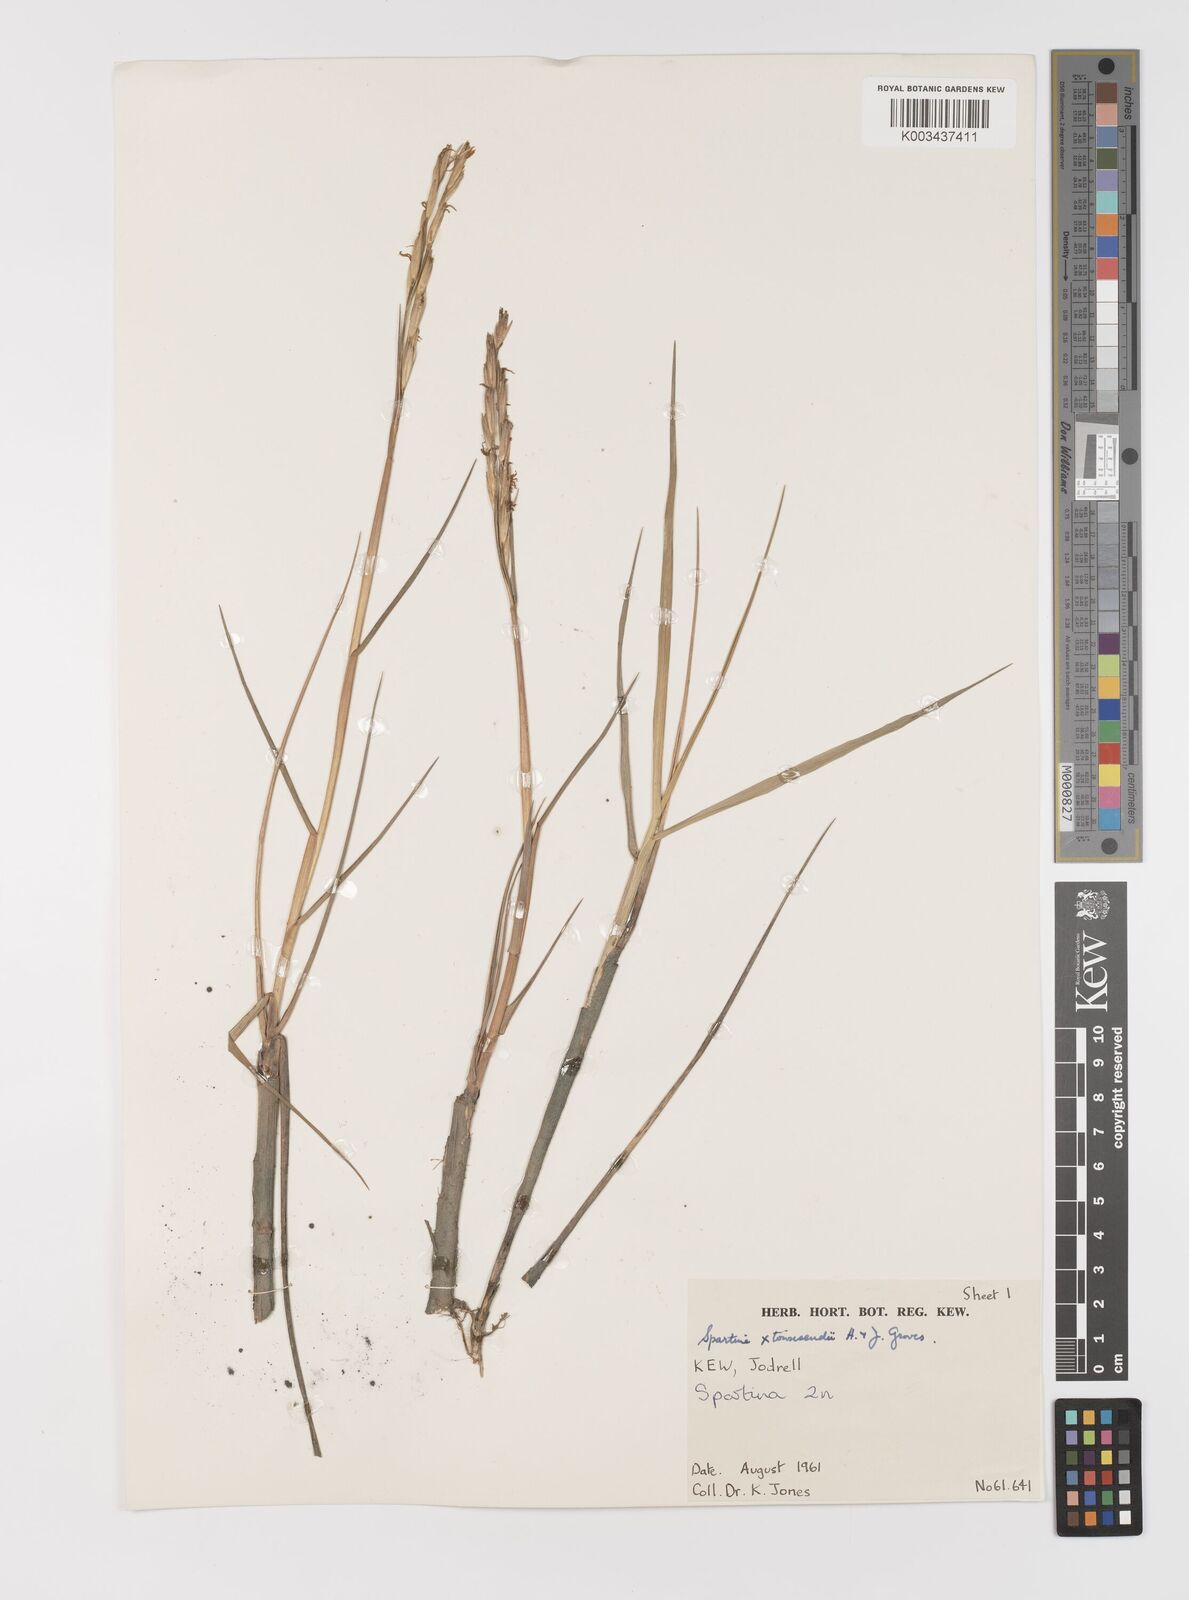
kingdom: Plantae
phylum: Tracheophyta
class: Liliopsida
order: Poales
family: Poaceae
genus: Sporobolus
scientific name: Sporobolus townsendii
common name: Townsend's cordgrass
